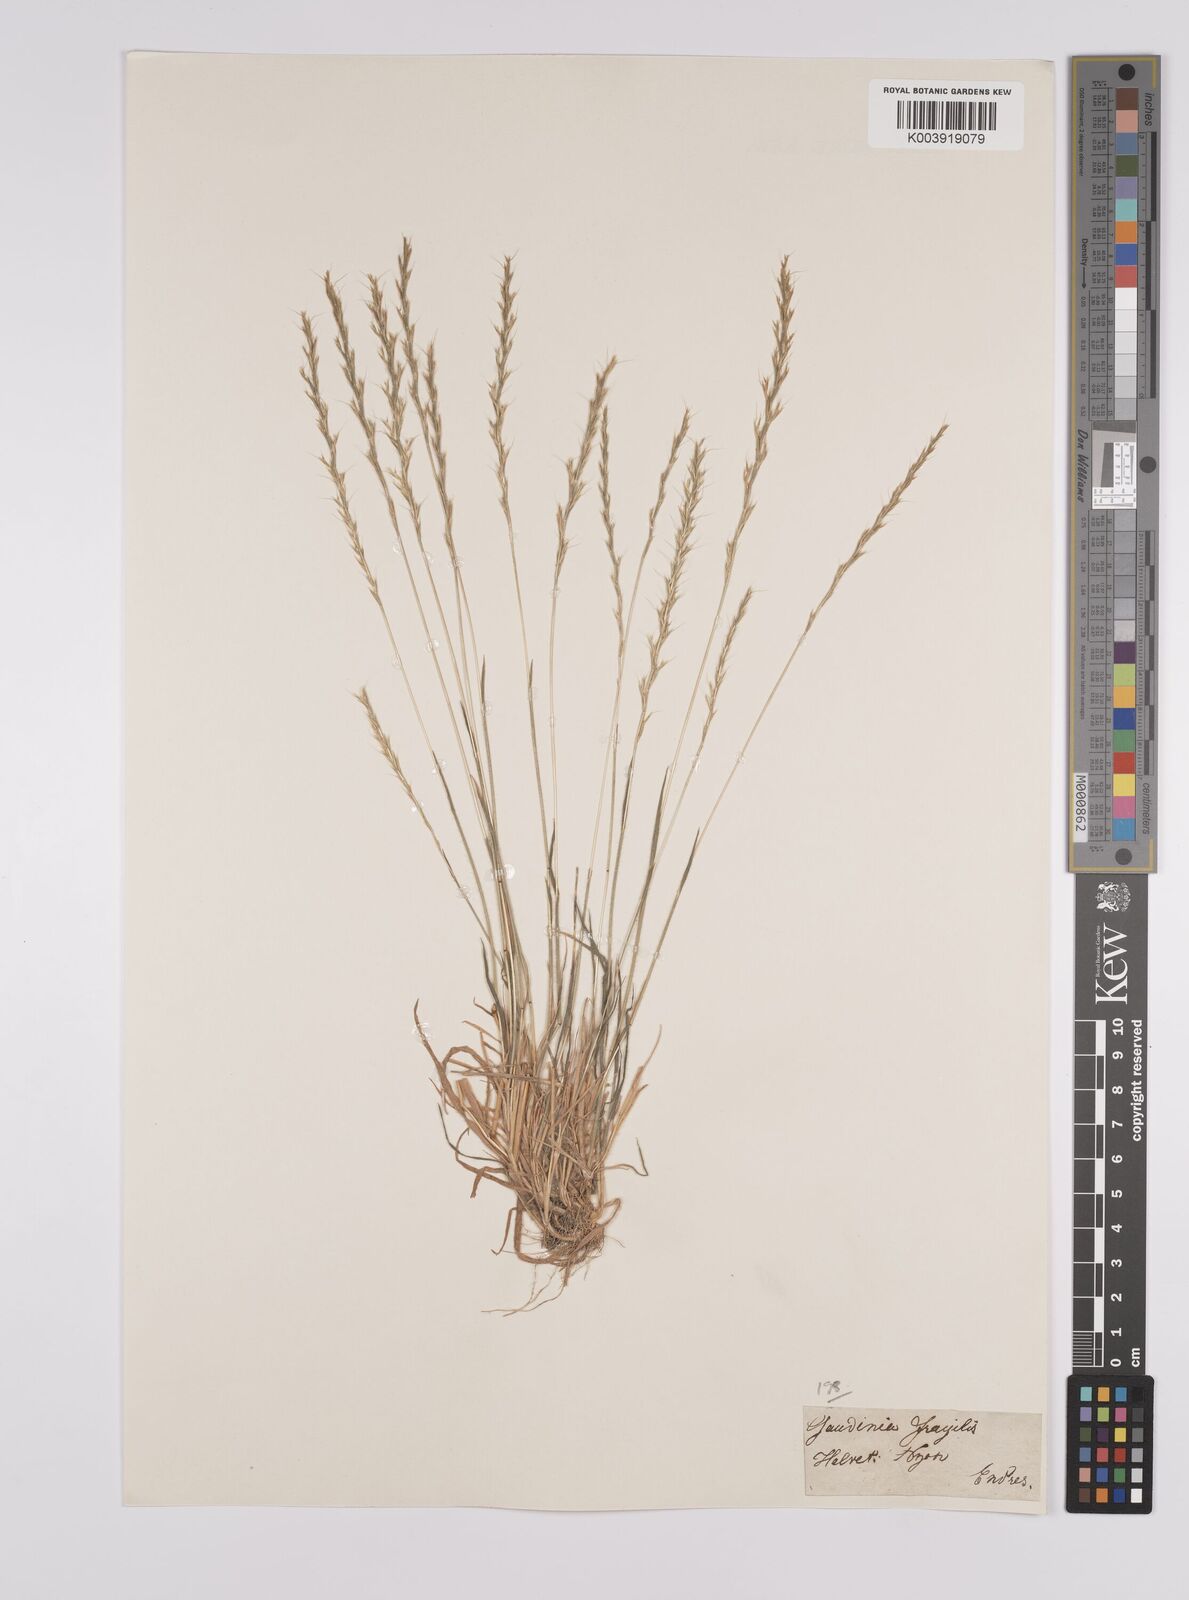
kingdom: Plantae
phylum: Tracheophyta
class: Liliopsida
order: Poales
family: Poaceae
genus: Gaudinia
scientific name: Gaudinia fragilis
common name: French oat-grass
